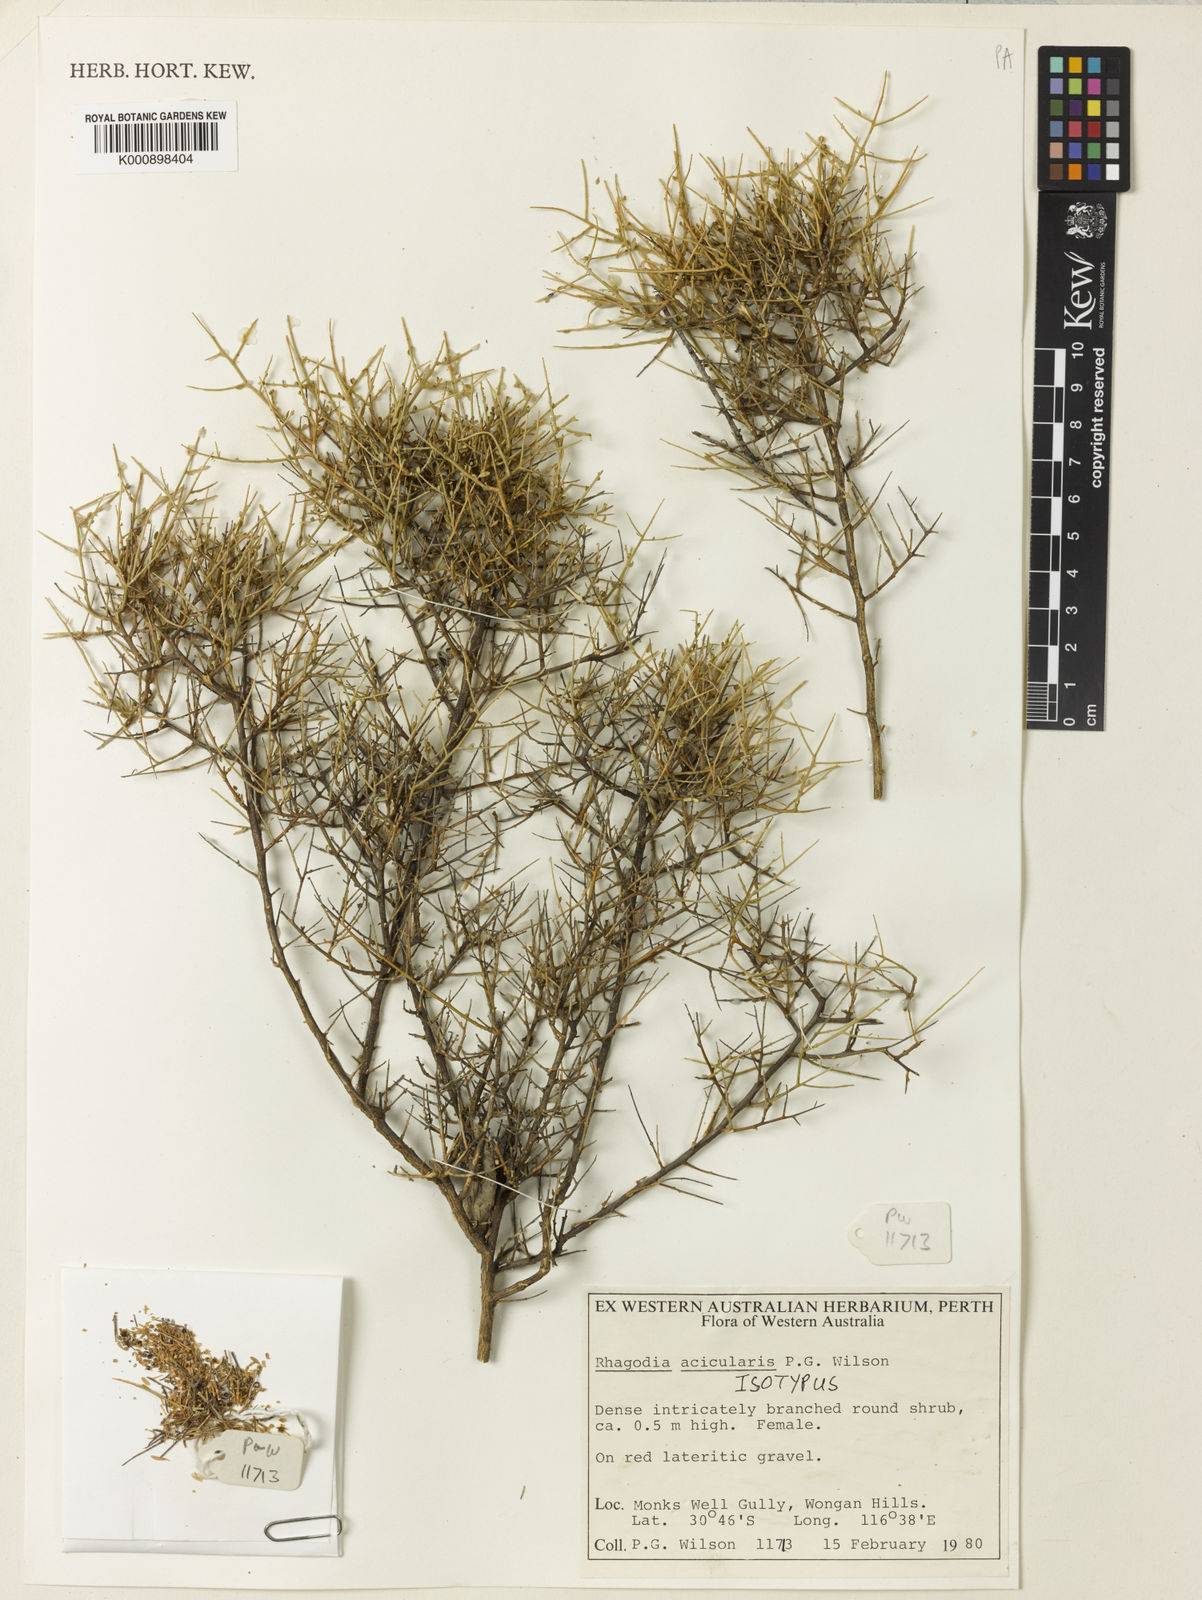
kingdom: Plantae
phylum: Tracheophyta
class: Magnoliopsida
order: Caryophyllales
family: Amaranthaceae
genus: Chenopodium
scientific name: Chenopodium aciculare
